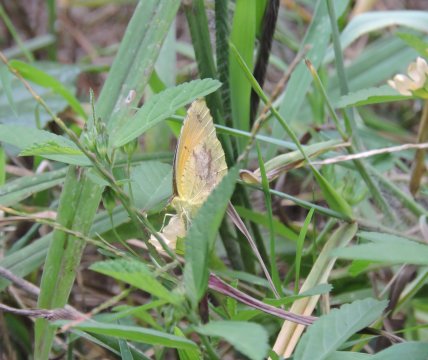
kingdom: Animalia
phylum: Arthropoda
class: Insecta
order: Lepidoptera
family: Pieridae
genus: Abaeis
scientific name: Abaeis nicippe
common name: Sleepy Orange
